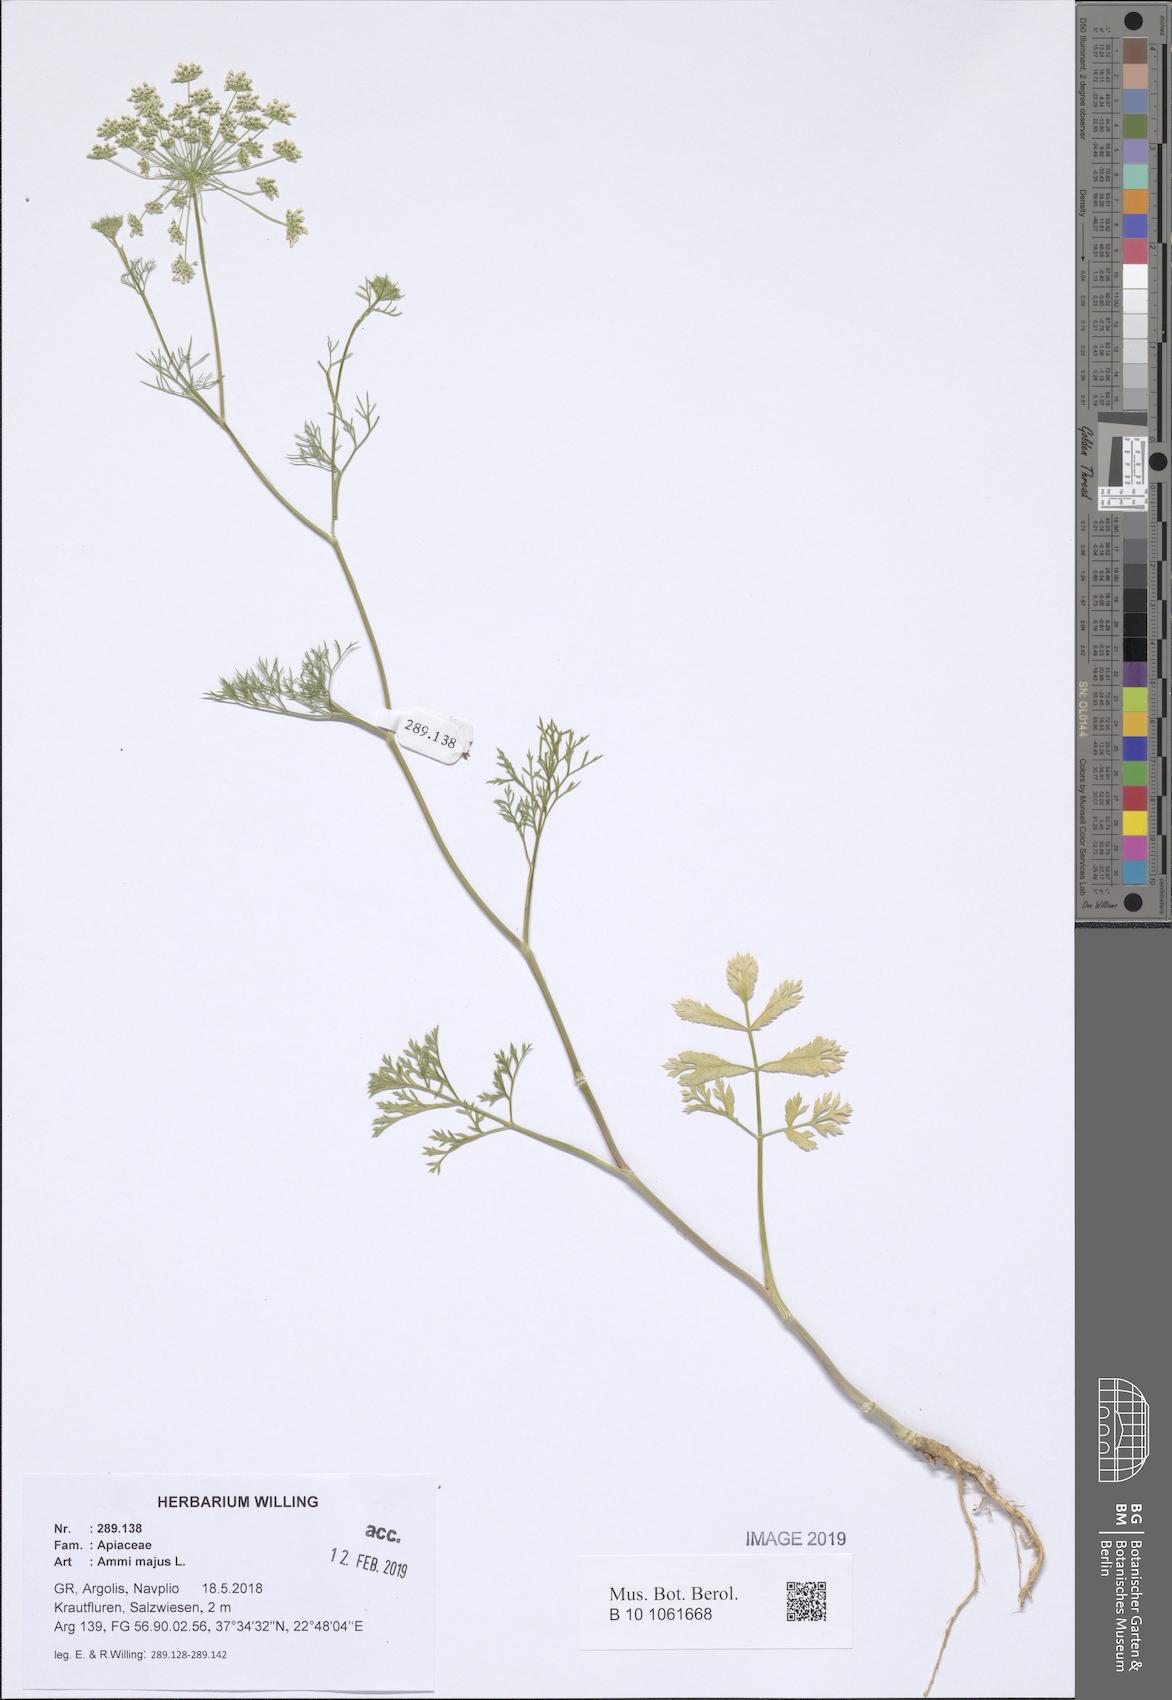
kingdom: Plantae
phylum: Tracheophyta
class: Magnoliopsida
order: Apiales
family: Apiaceae
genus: Ammi
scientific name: Ammi majus
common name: Bullwort
